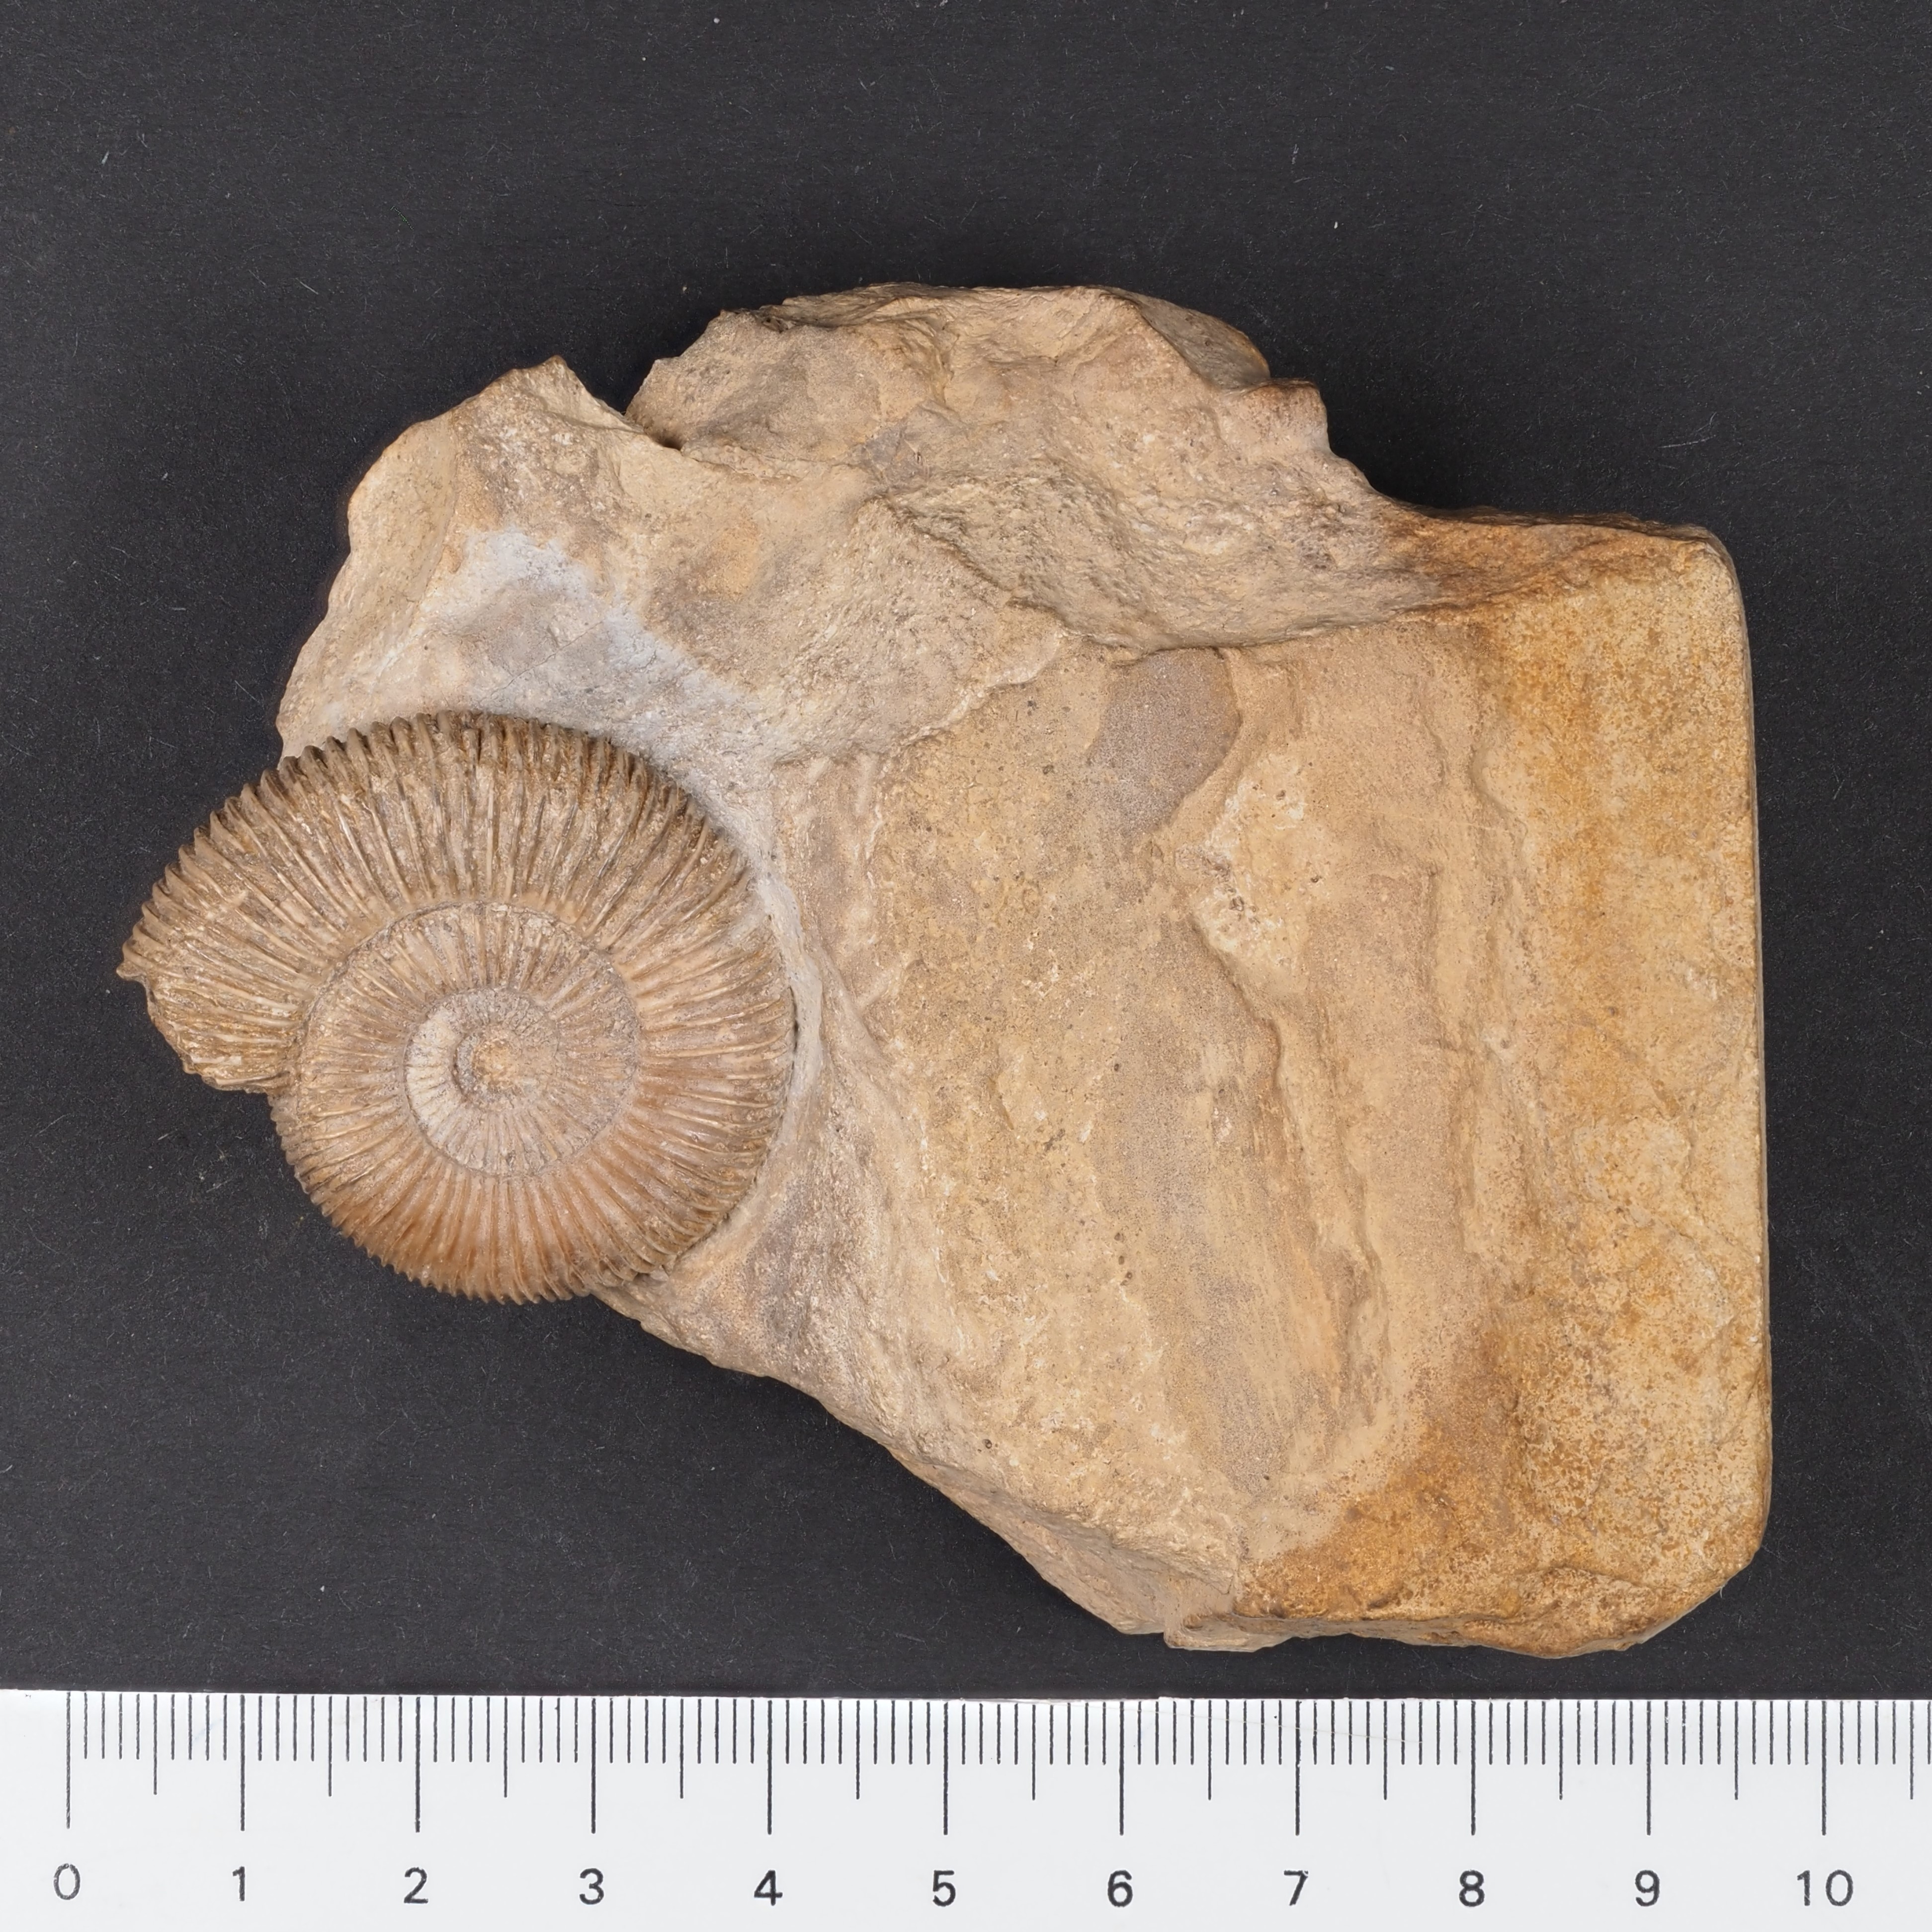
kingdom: Animalia
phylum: Mollusca
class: Cephalopoda
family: Dactylioceratidae
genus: Dactylioceras
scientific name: Dactylioceras
